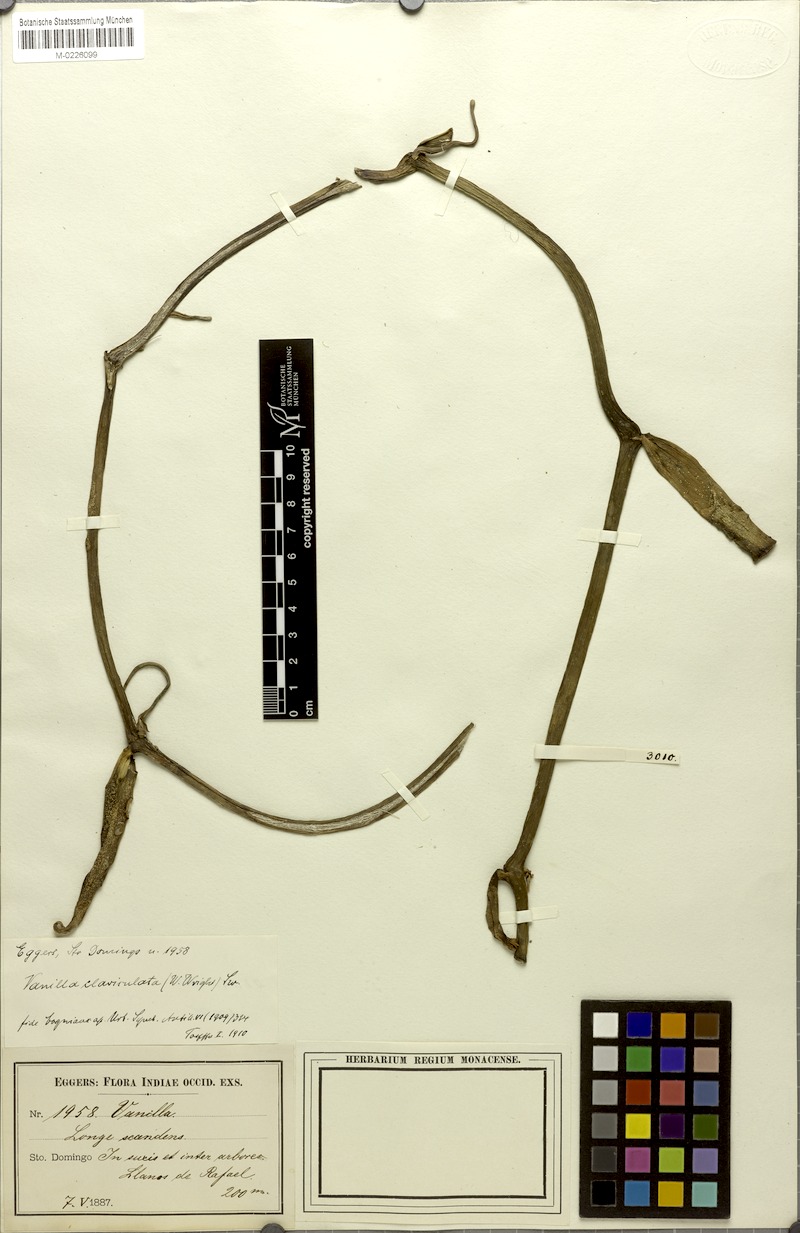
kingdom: Plantae
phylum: Tracheophyta
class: Liliopsida
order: Asparagales
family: Orchidaceae
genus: Vanilla
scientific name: Vanilla poitaei
